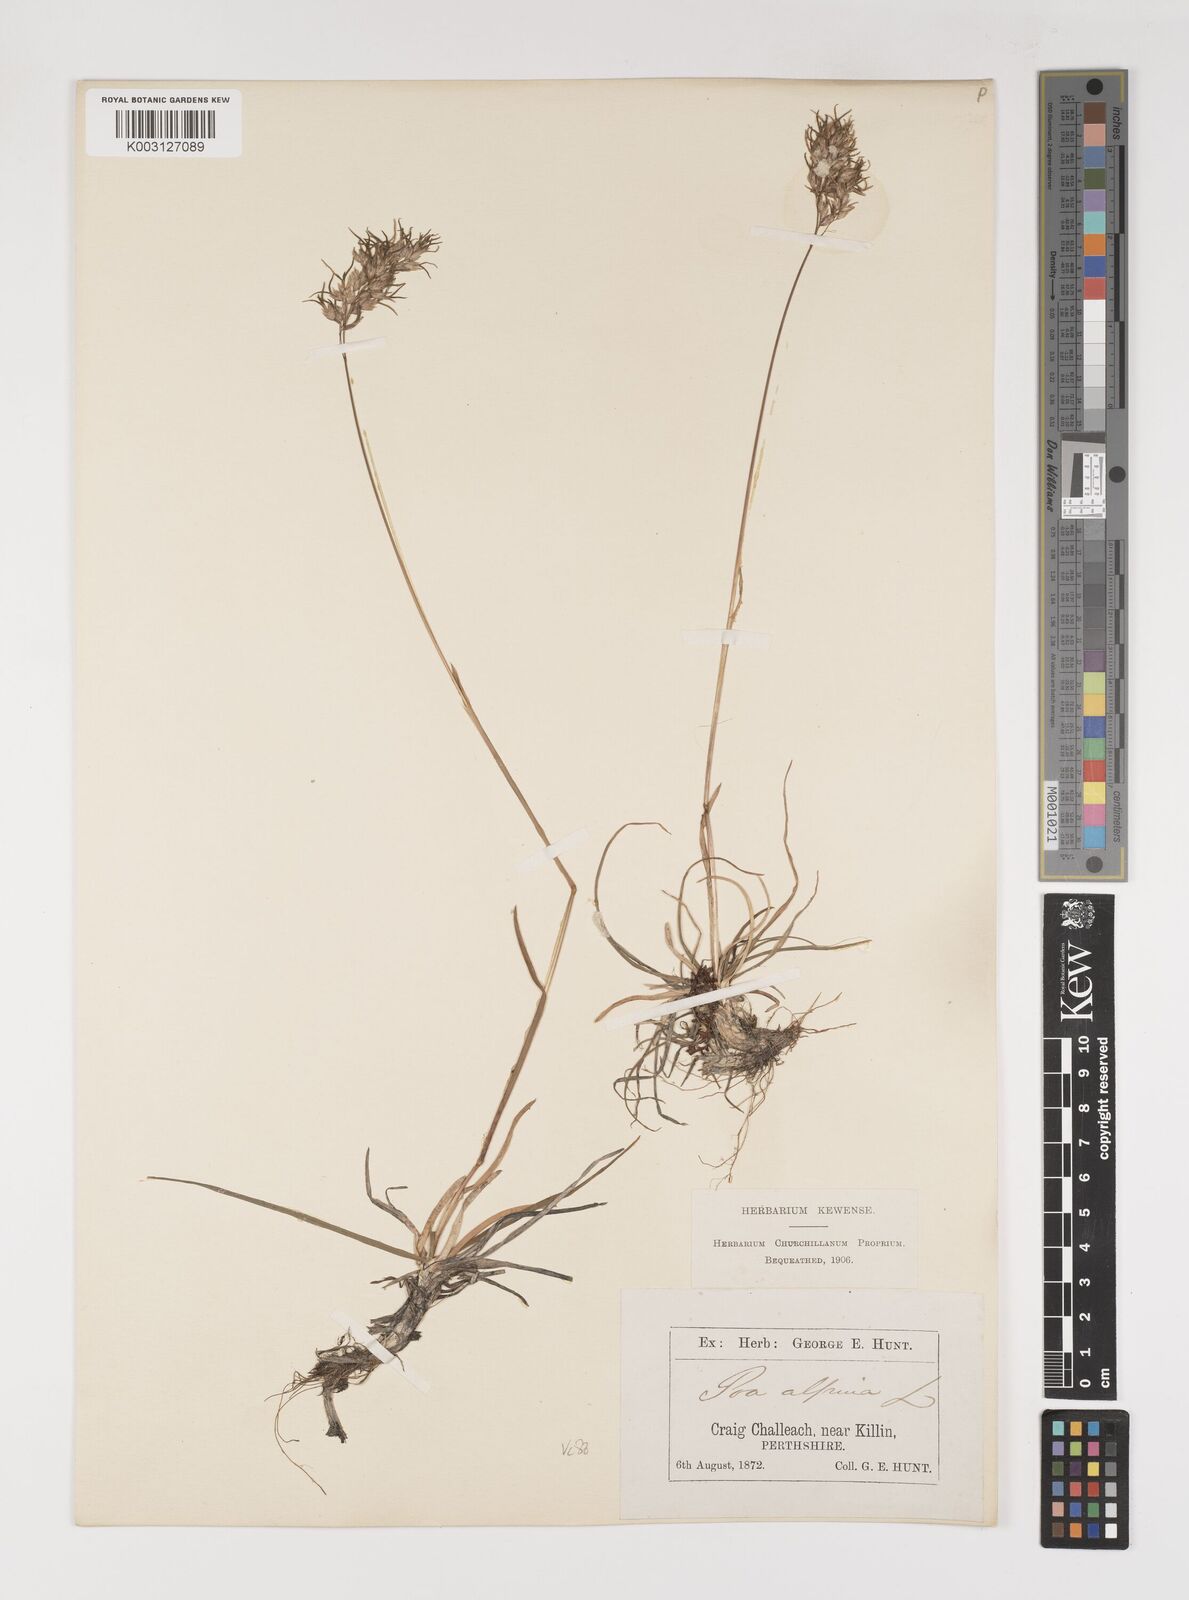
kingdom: Plantae
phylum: Tracheophyta
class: Liliopsida
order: Poales
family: Poaceae
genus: Poa
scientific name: Poa alpina
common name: Alpine bluegrass
